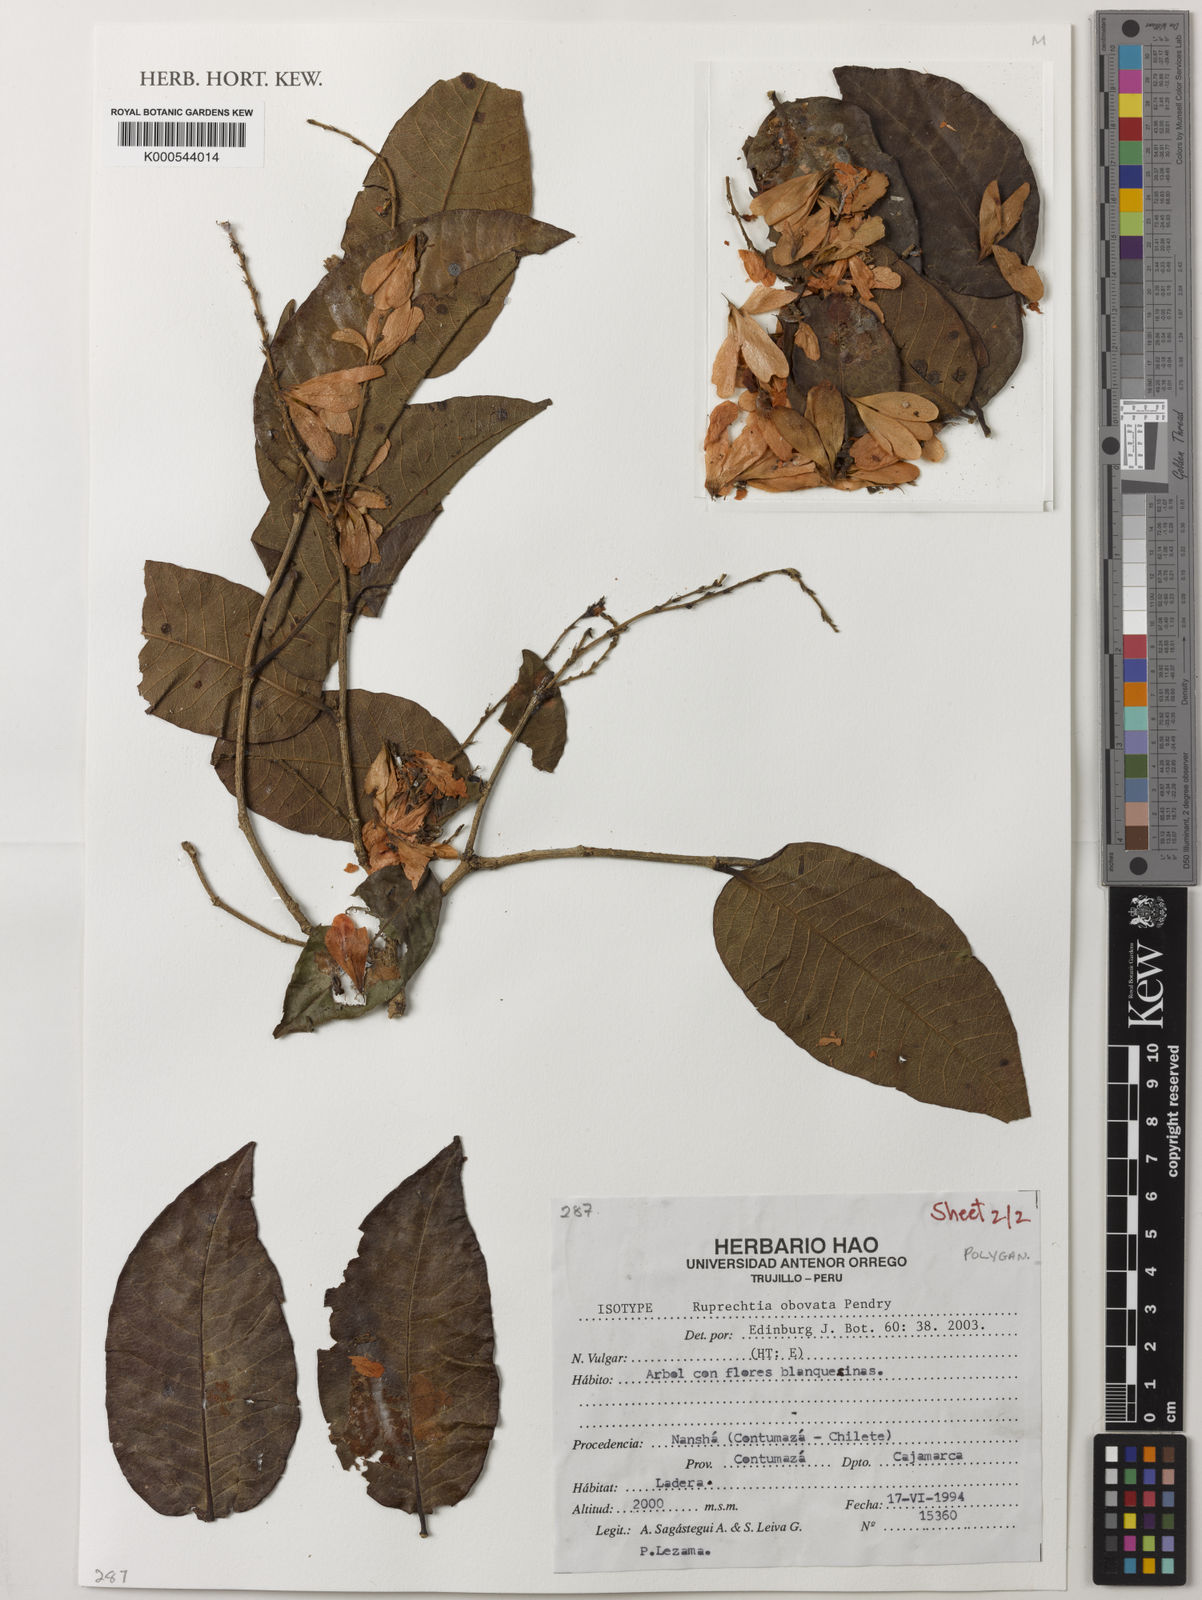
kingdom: Plantae
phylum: Tracheophyta
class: Magnoliopsida
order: Caryophyllales
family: Polygonaceae
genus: Ruprechtia
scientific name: Ruprechtia obovata
